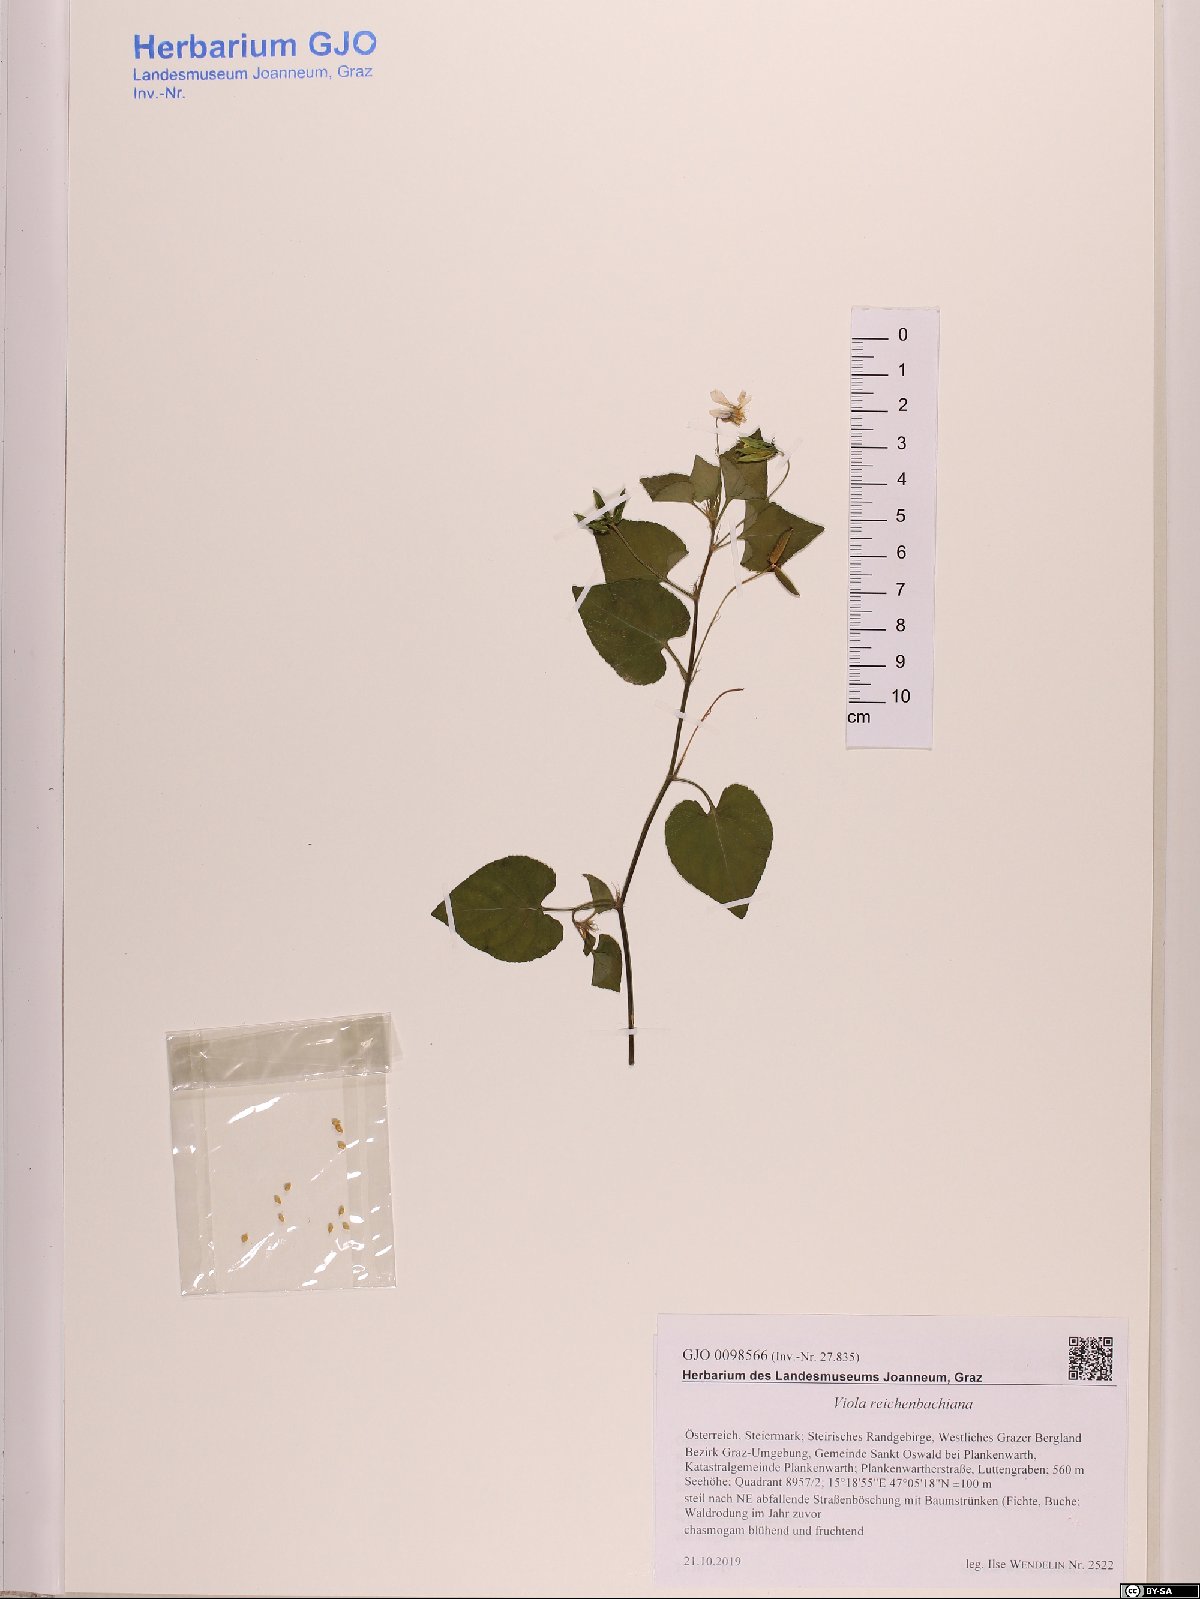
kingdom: Plantae
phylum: Tracheophyta
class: Magnoliopsida
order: Malpighiales
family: Violaceae
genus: Viola
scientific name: Viola reichenbachiana
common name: Early dog-violet
